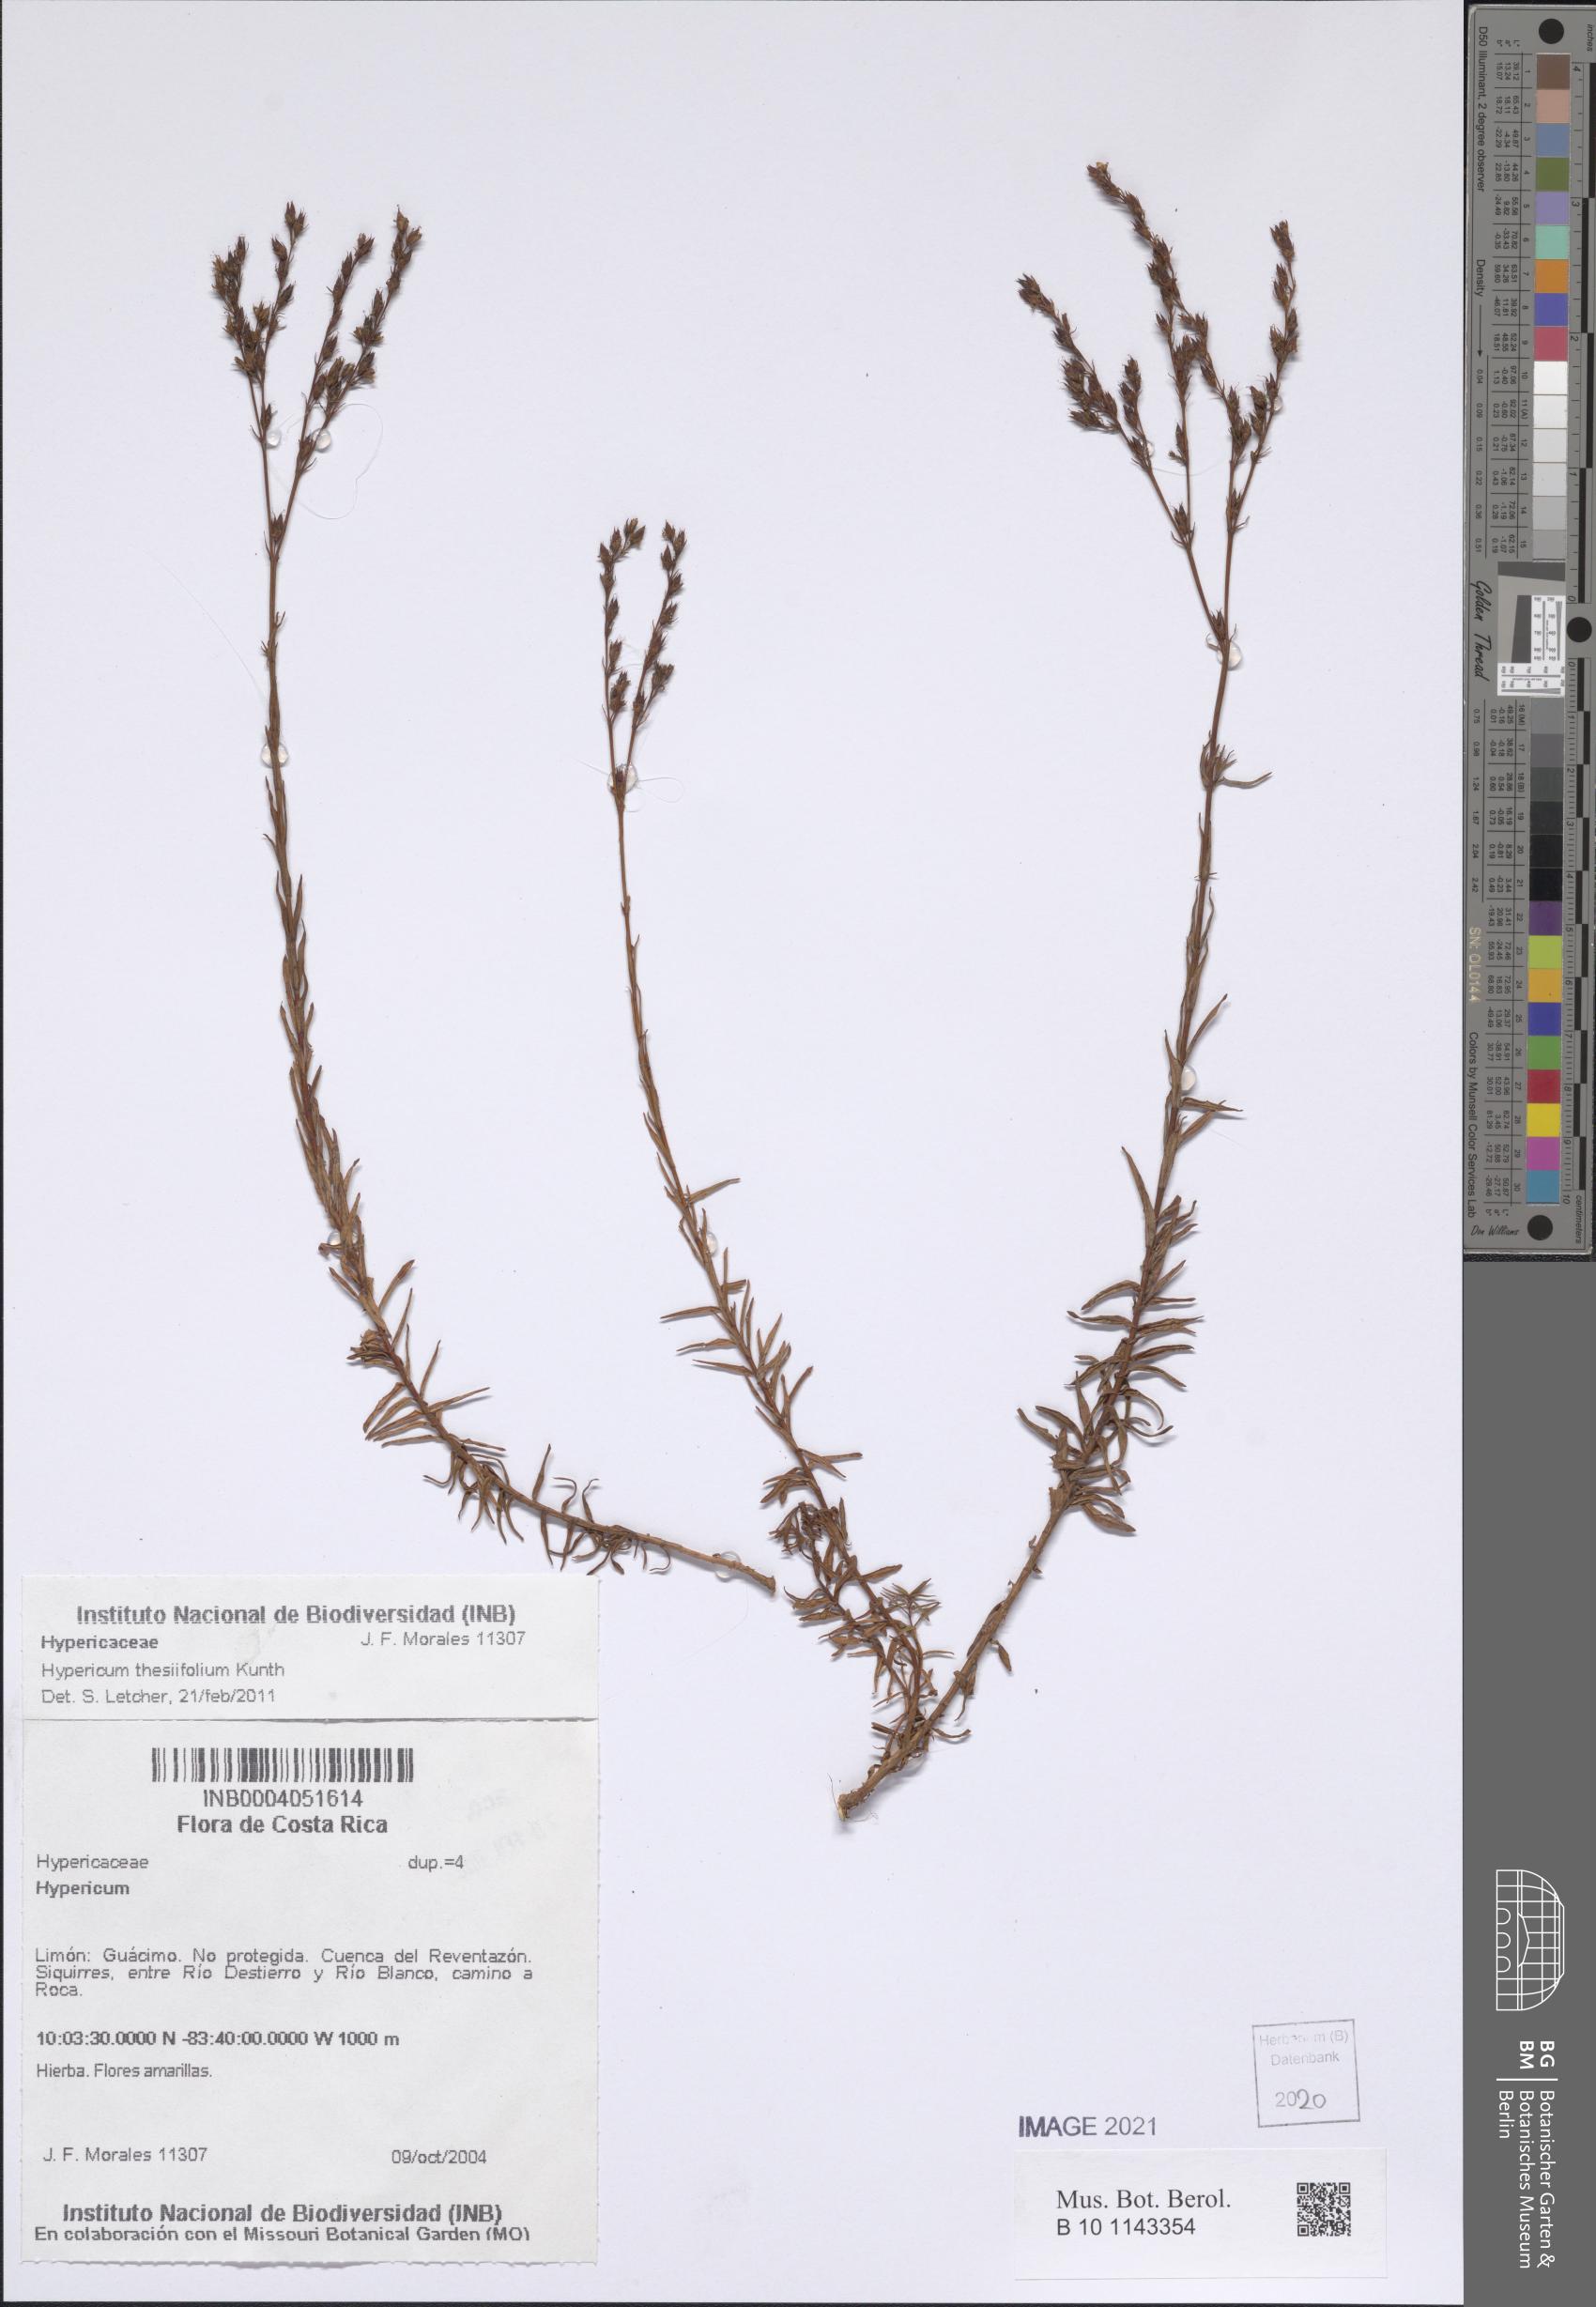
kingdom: Plantae
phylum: Tracheophyta
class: Magnoliopsida
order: Malpighiales
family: Hypericaceae
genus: Hypericum
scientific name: Hypericum thesiifolium
